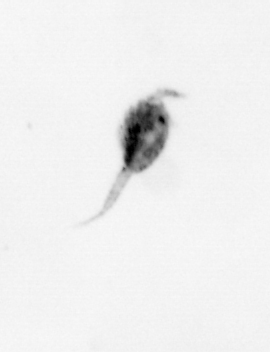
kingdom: Animalia
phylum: Arthropoda
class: Copepoda
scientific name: Copepoda
